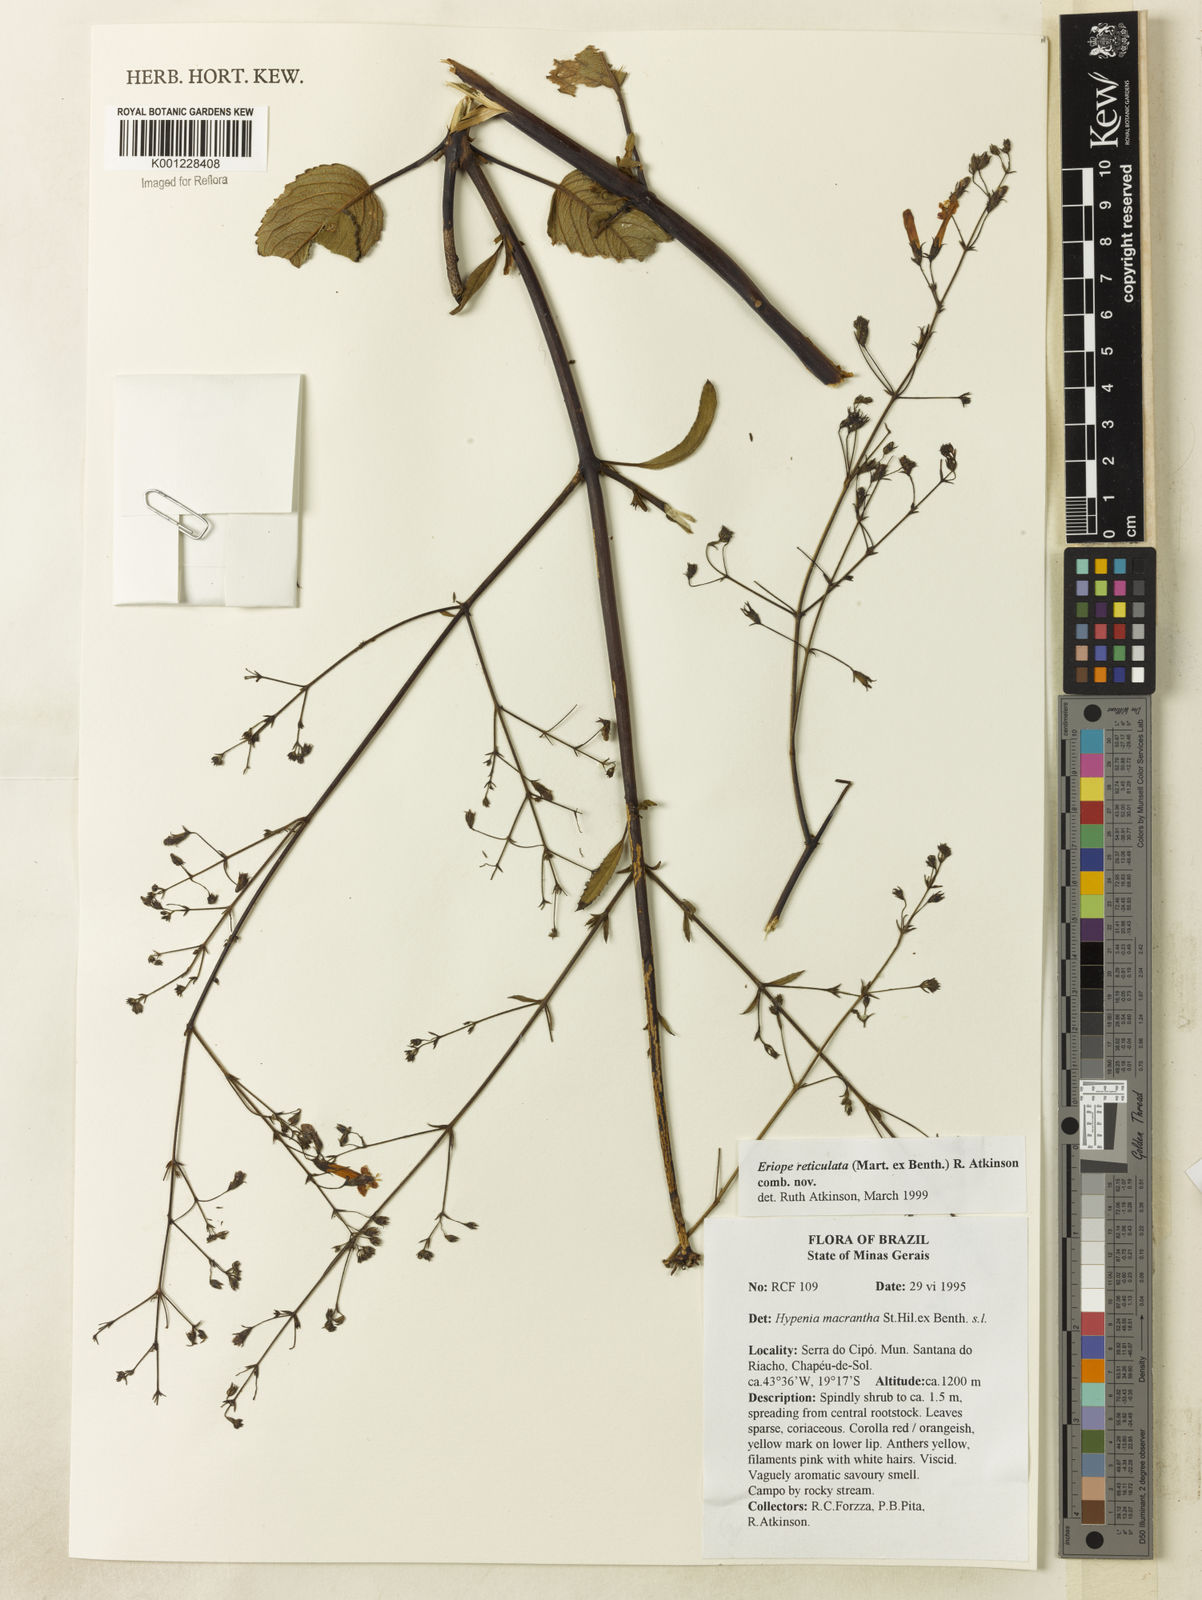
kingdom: Plantae
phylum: Tracheophyta
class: Magnoliopsida
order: Lamiales
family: Lamiaceae
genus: Hypenia
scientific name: Hypenia reticulata
